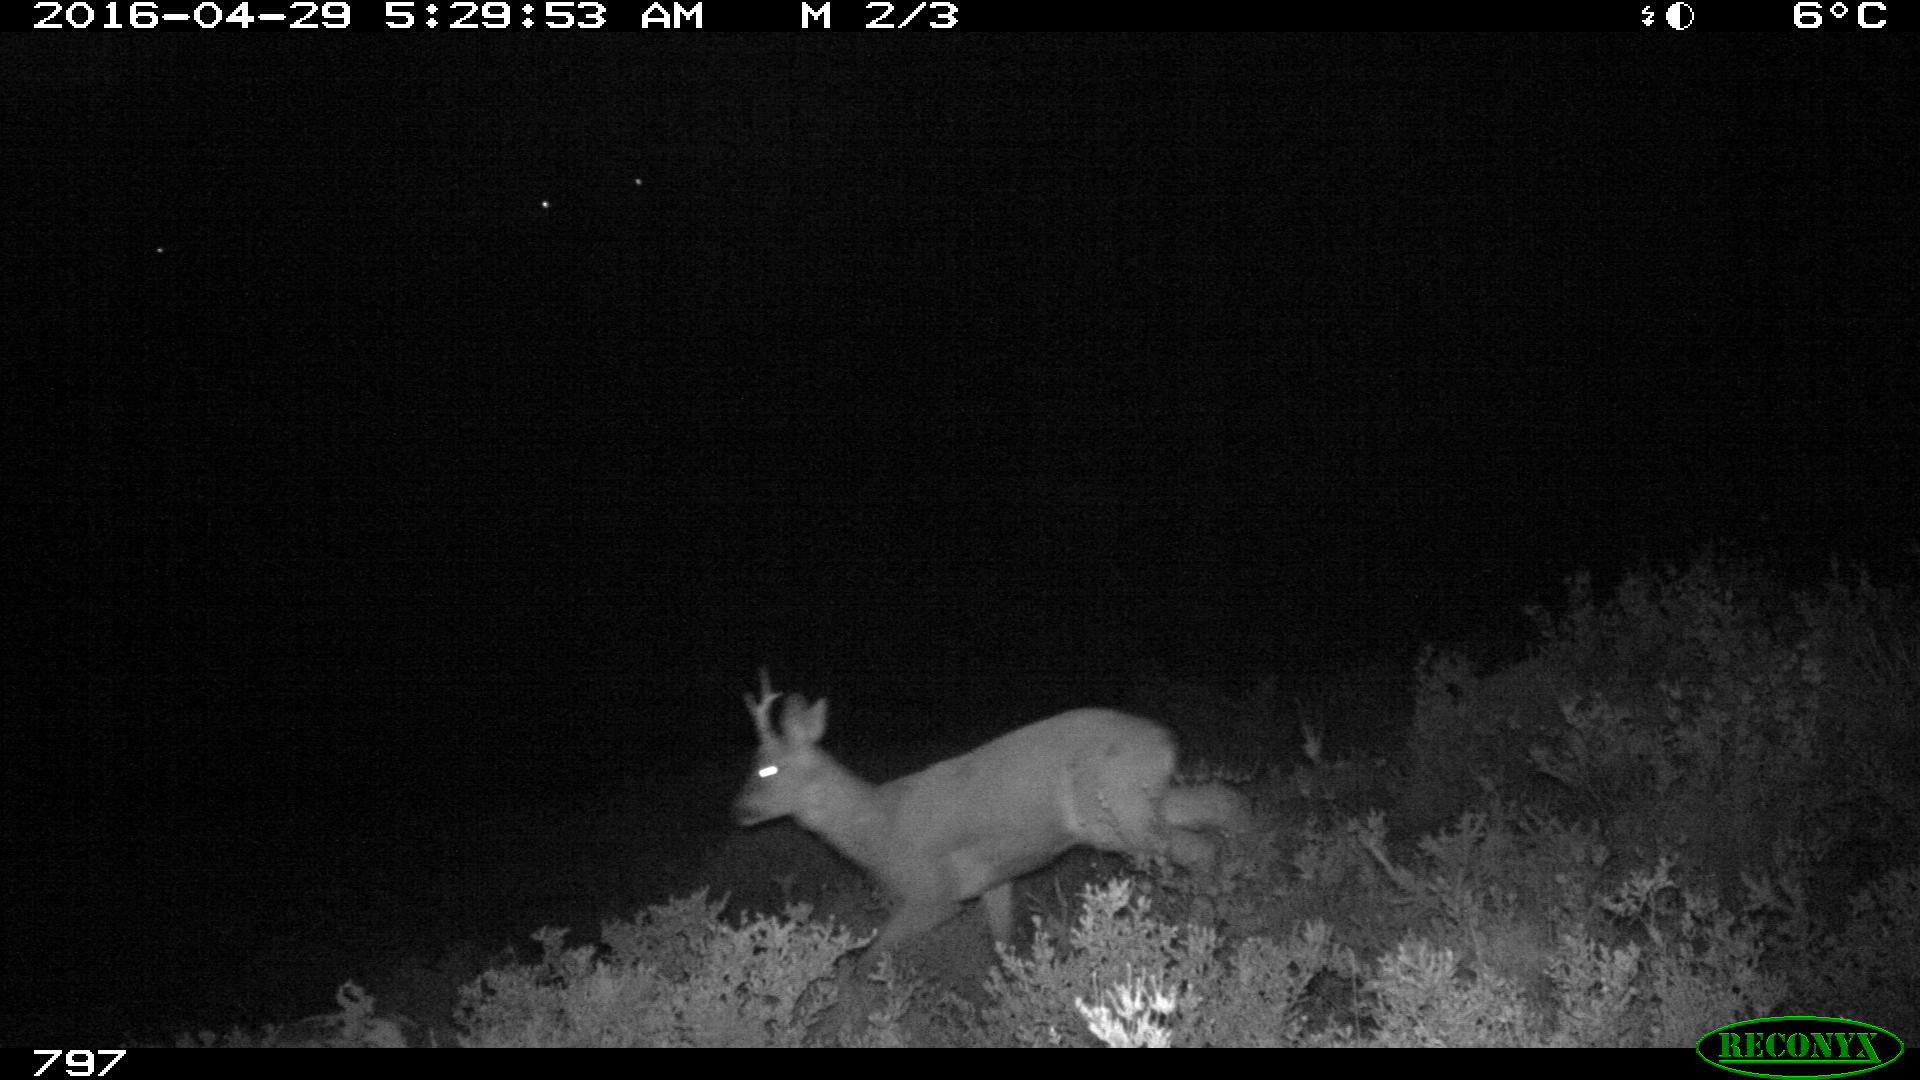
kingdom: Animalia
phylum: Chordata
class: Mammalia
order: Artiodactyla
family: Cervidae
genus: Capreolus
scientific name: Capreolus capreolus
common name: Western roe deer
